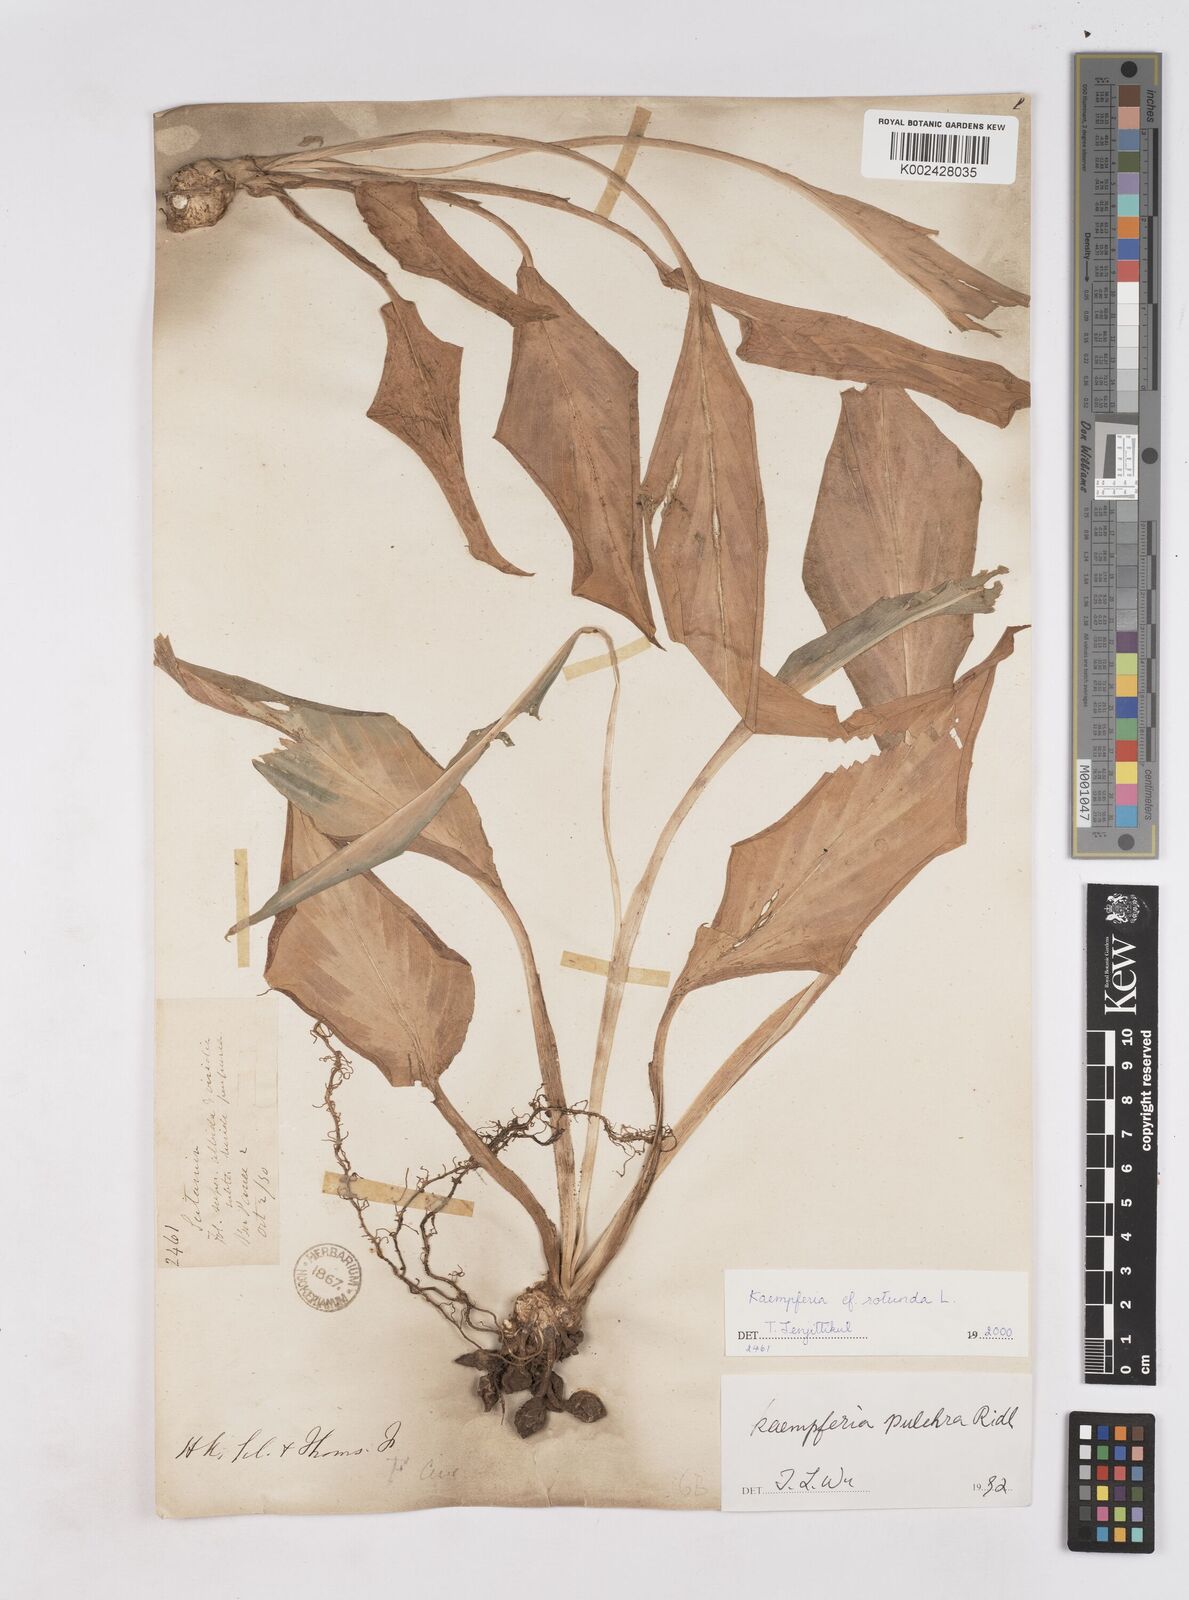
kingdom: Plantae
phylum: Tracheophyta
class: Liliopsida
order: Zingiberales
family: Zingiberaceae
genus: Kaempferia
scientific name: Kaempferia rotunda
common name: Tropical-crocus
